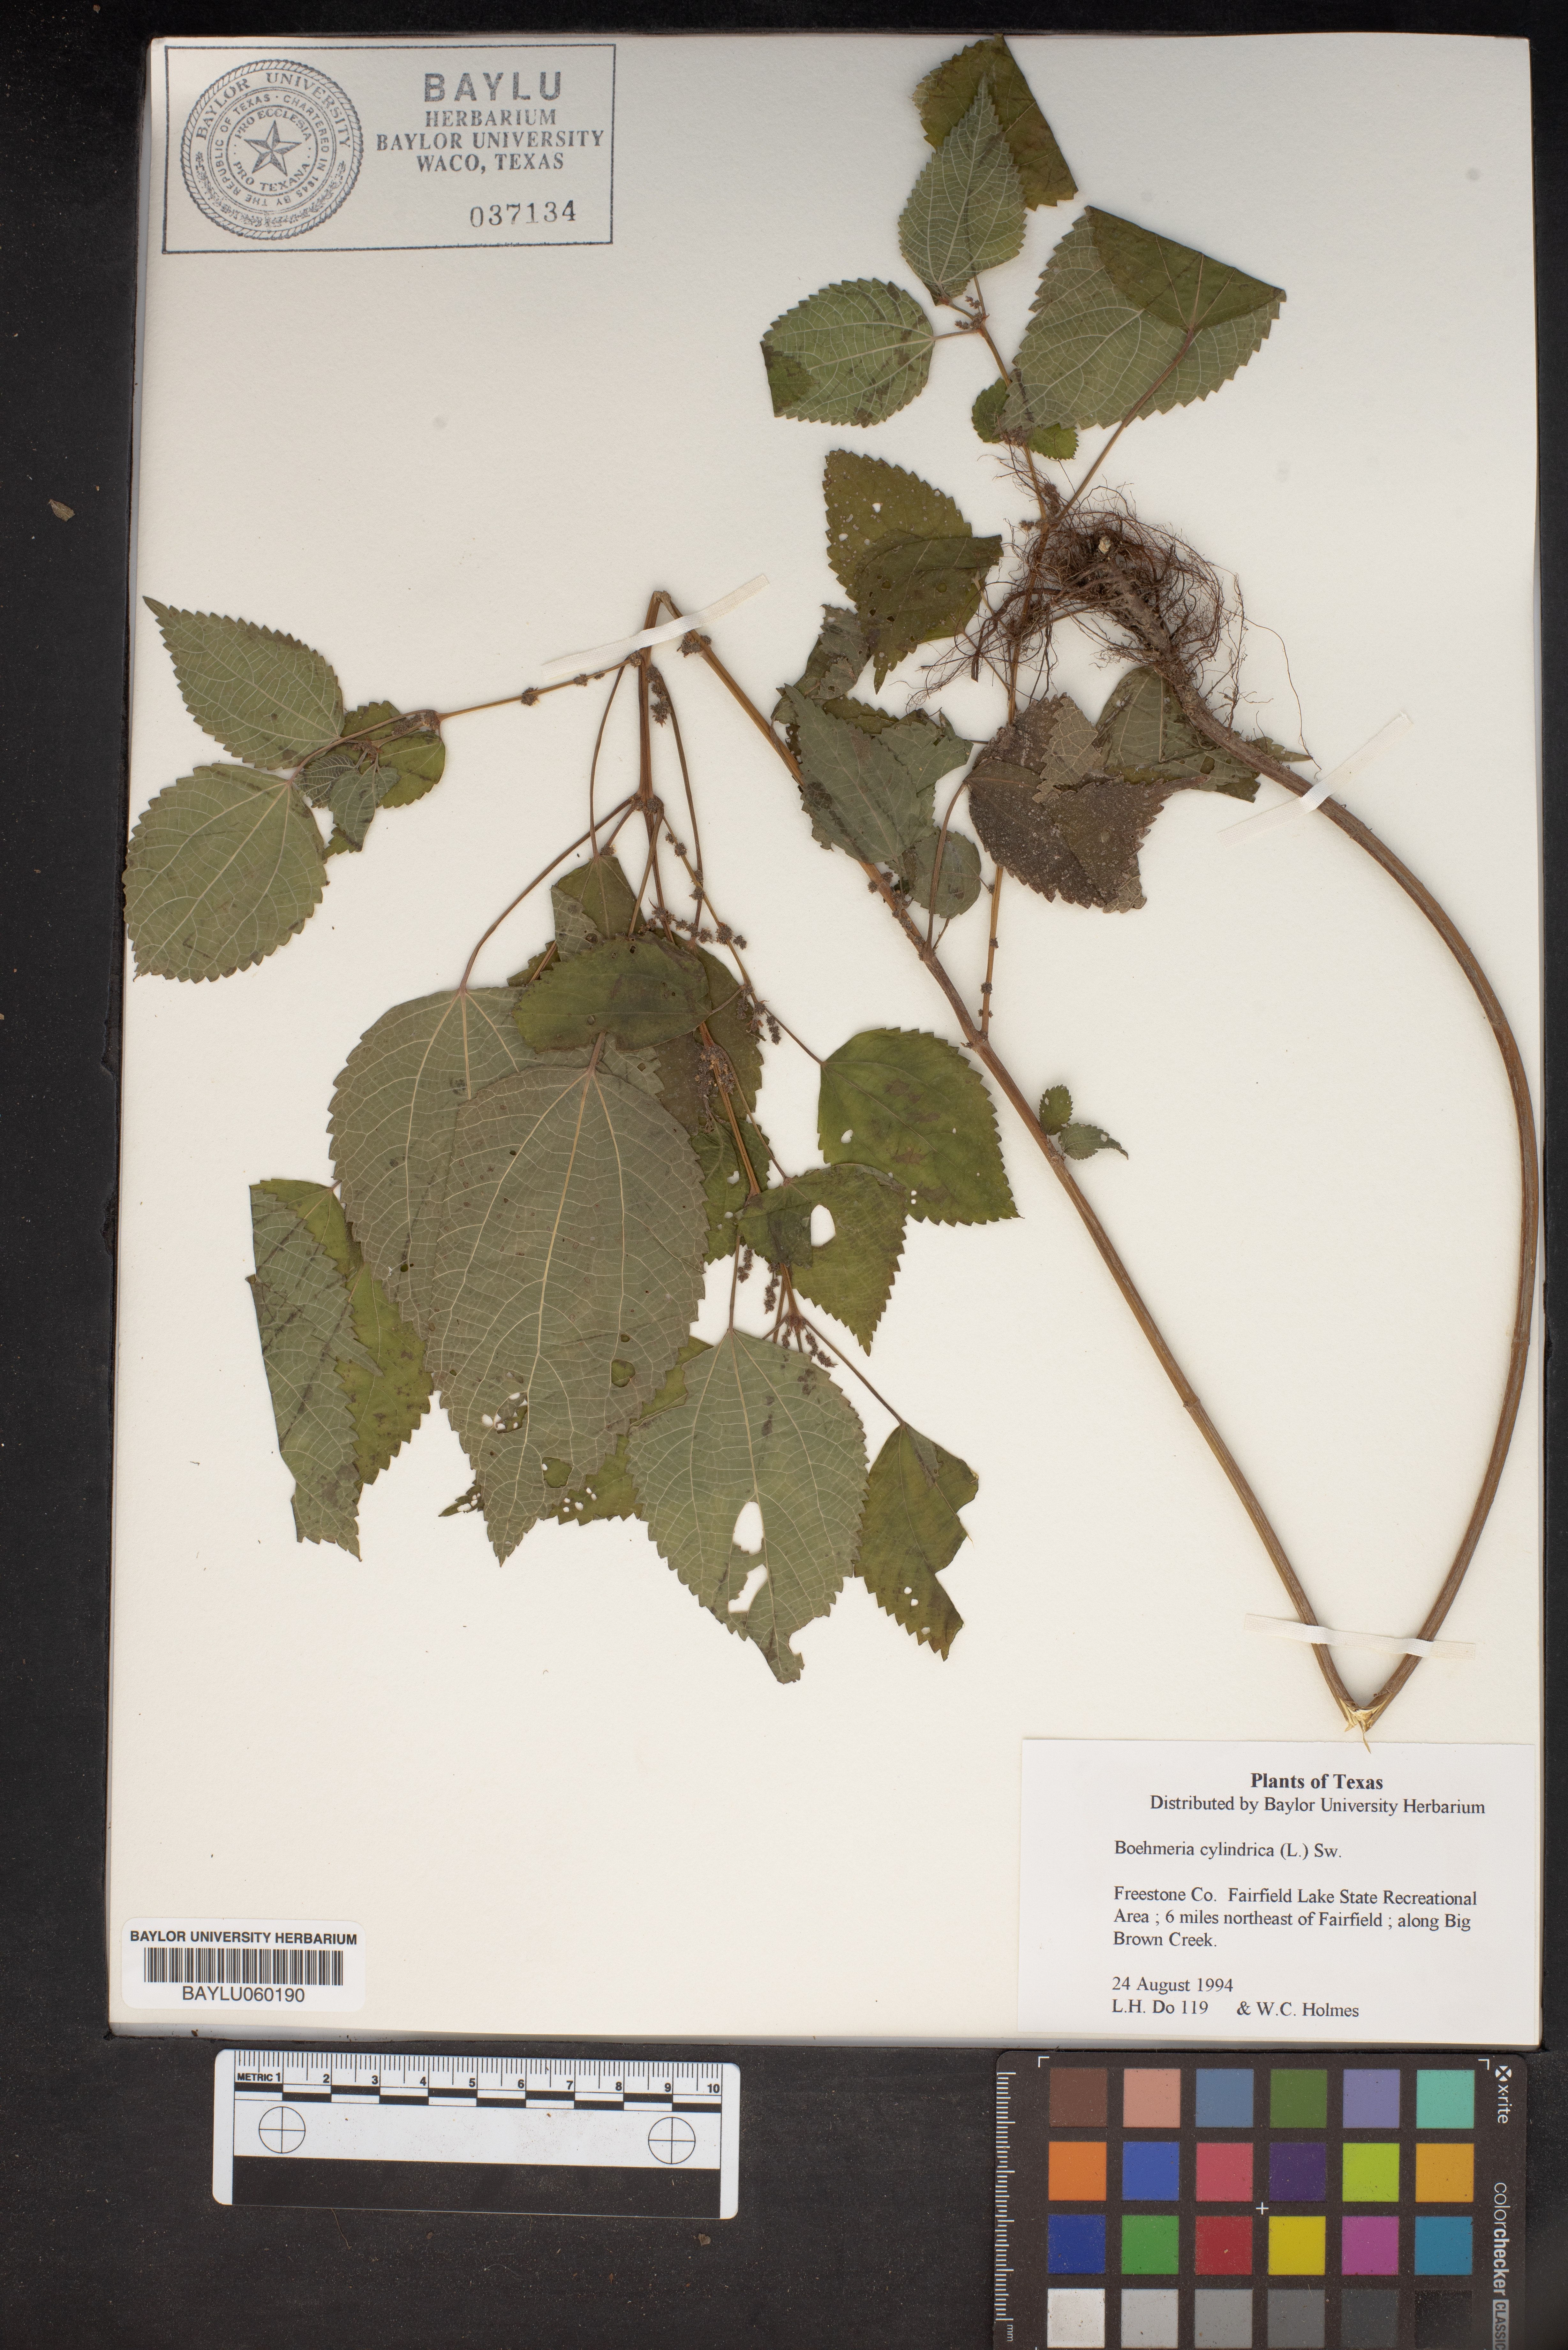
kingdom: Plantae
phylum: Tracheophyta
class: Magnoliopsida
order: Rosales
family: Urticaceae
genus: Boehmeria
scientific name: Boehmeria cylindrica
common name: Bog-hemp
